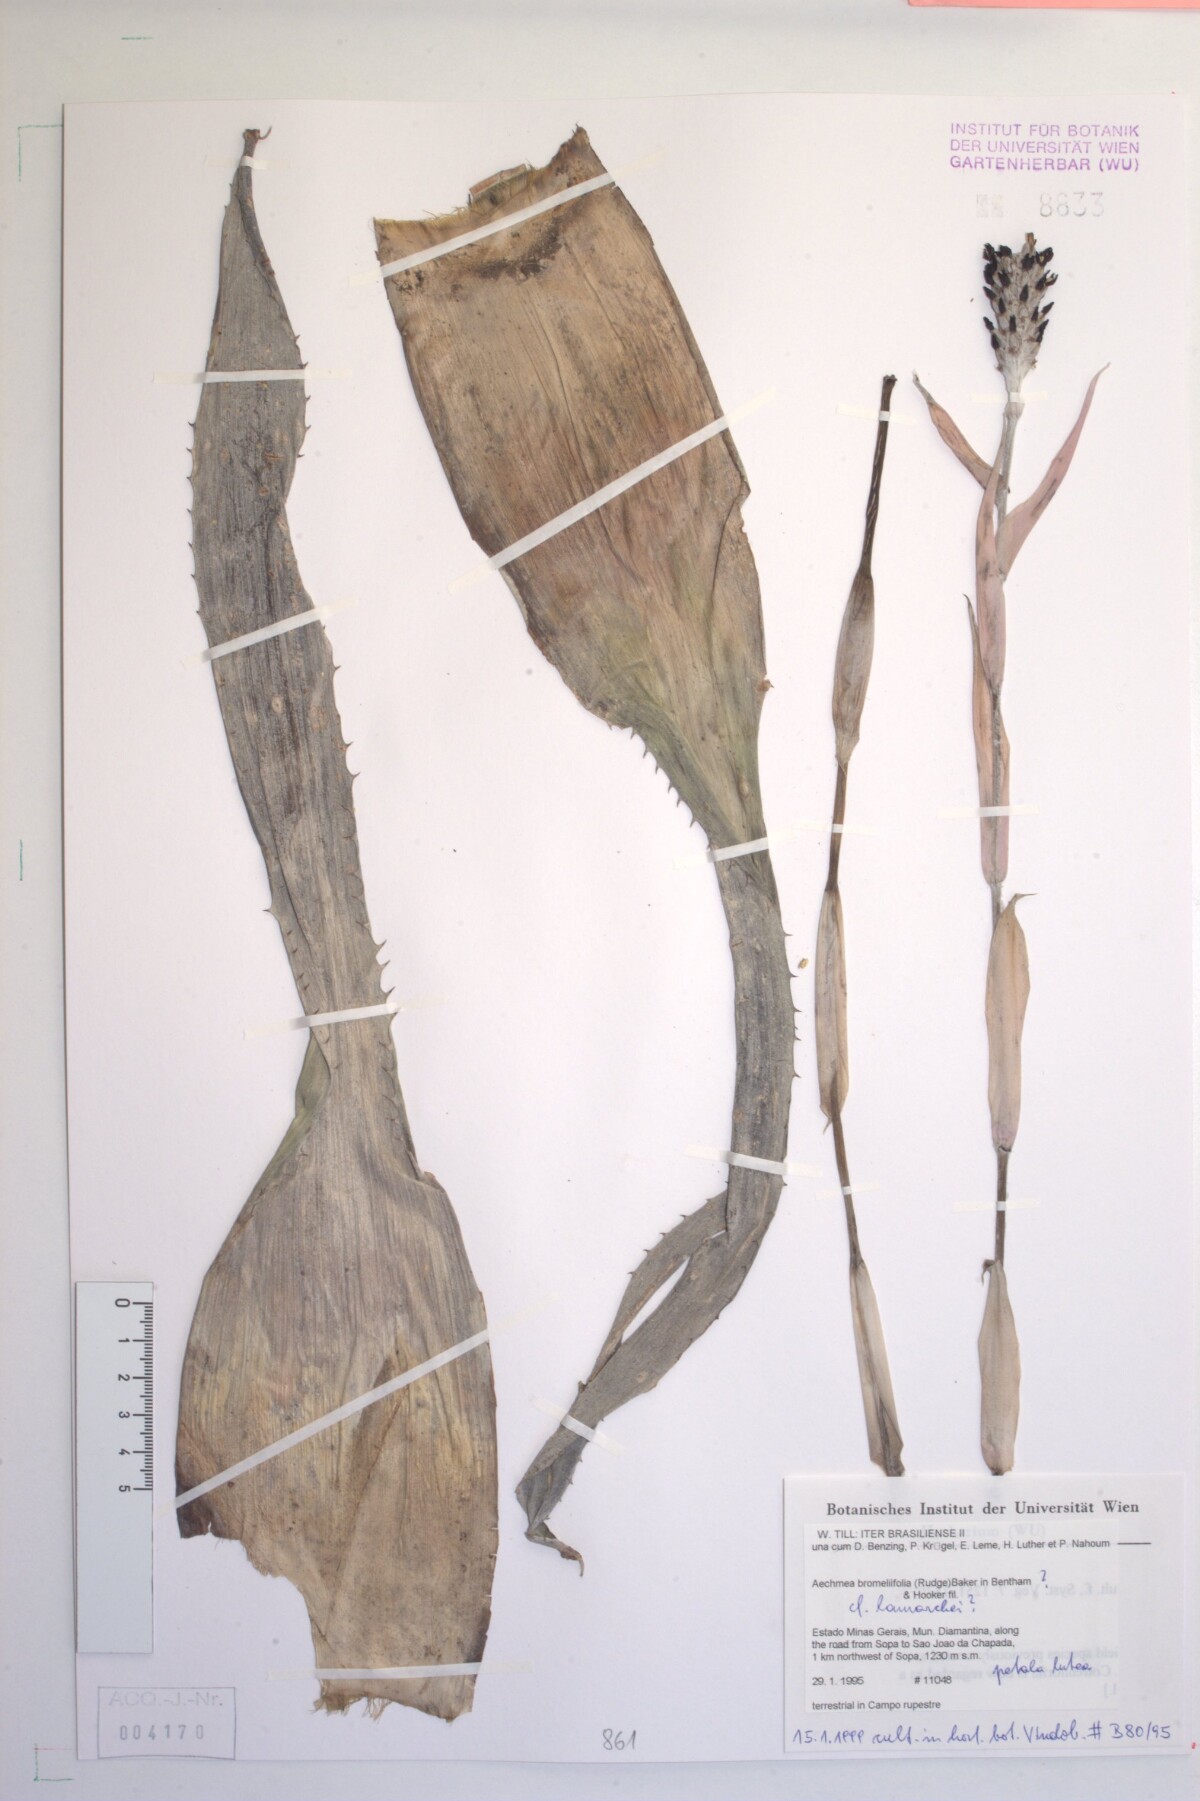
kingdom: Plantae
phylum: Tracheophyta
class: Liliopsida
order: Poales
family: Bromeliaceae
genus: Aechmea
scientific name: Aechmea bromeliifolia
